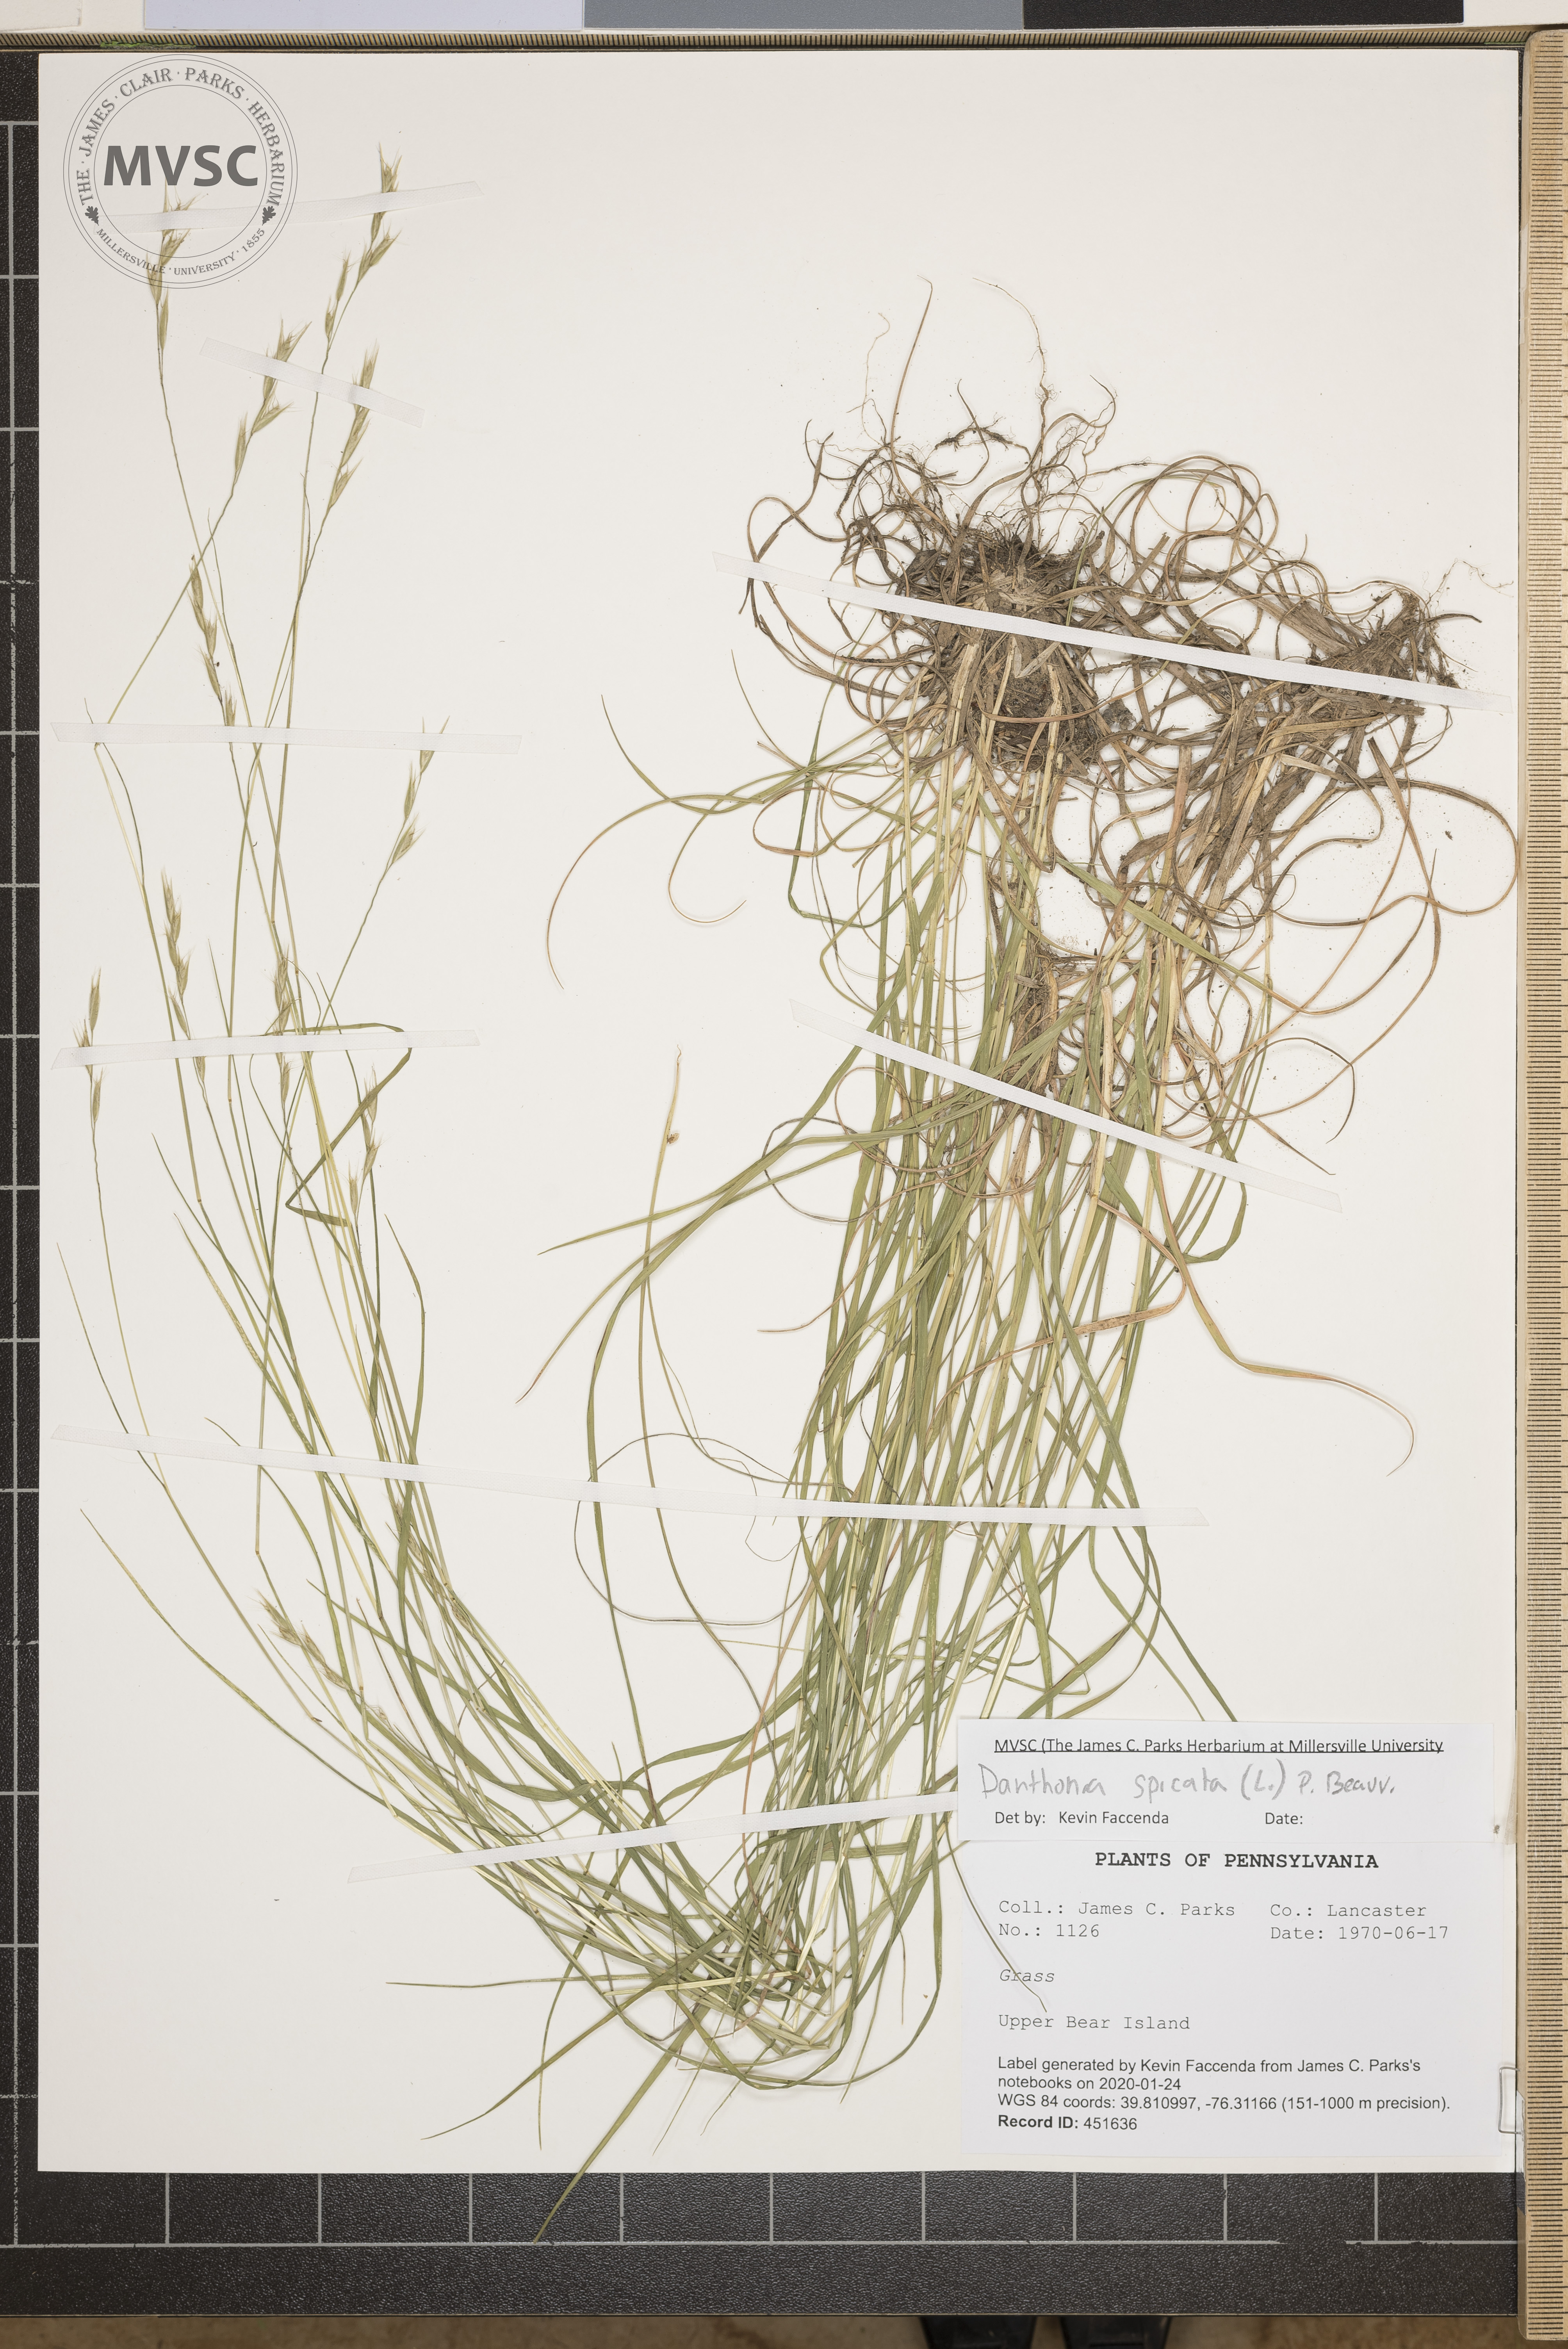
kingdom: Plantae
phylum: Tracheophyta
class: Liliopsida
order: Poales
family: Poaceae
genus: Danthonia
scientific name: Danthonia spicata
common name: Common wild oatgrass
